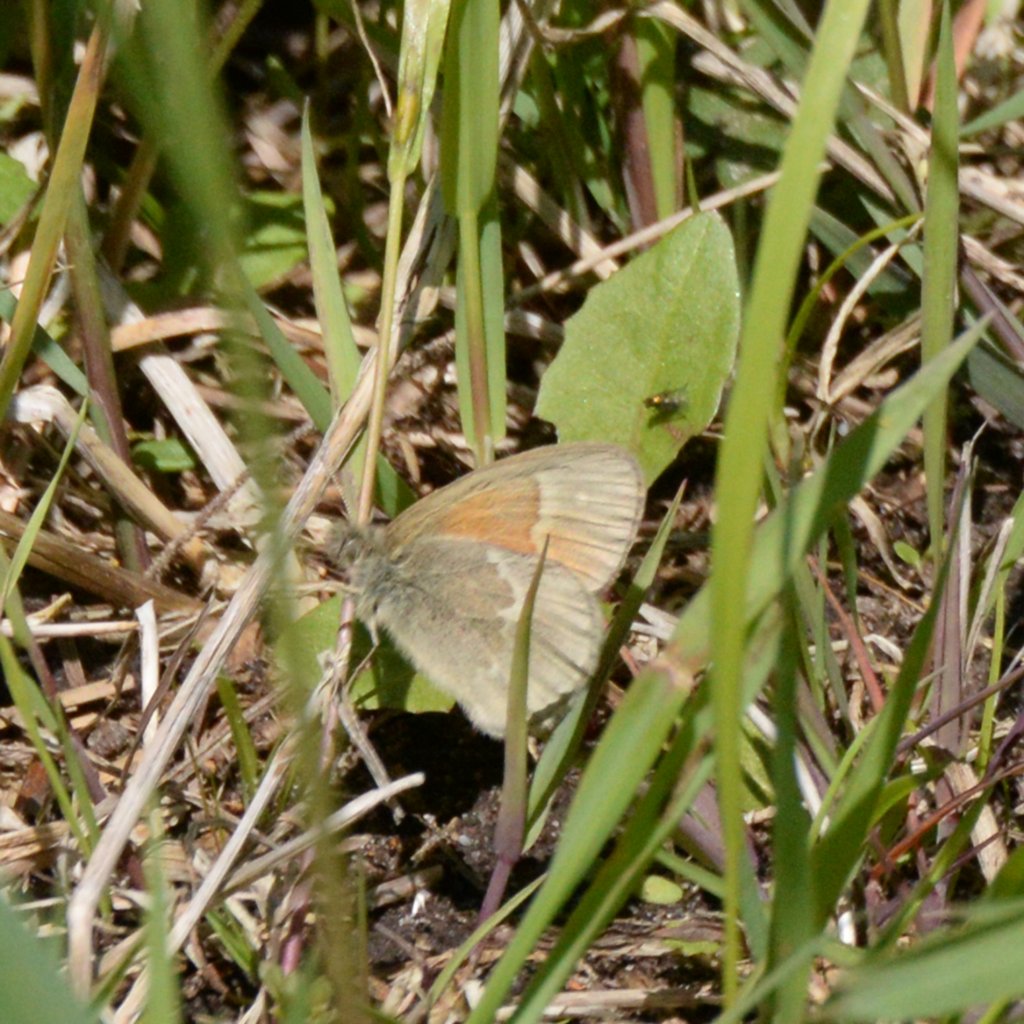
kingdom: Animalia
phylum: Arthropoda
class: Insecta
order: Lepidoptera
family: Nymphalidae
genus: Coenonympha
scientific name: Coenonympha tullia
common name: Large Heath
